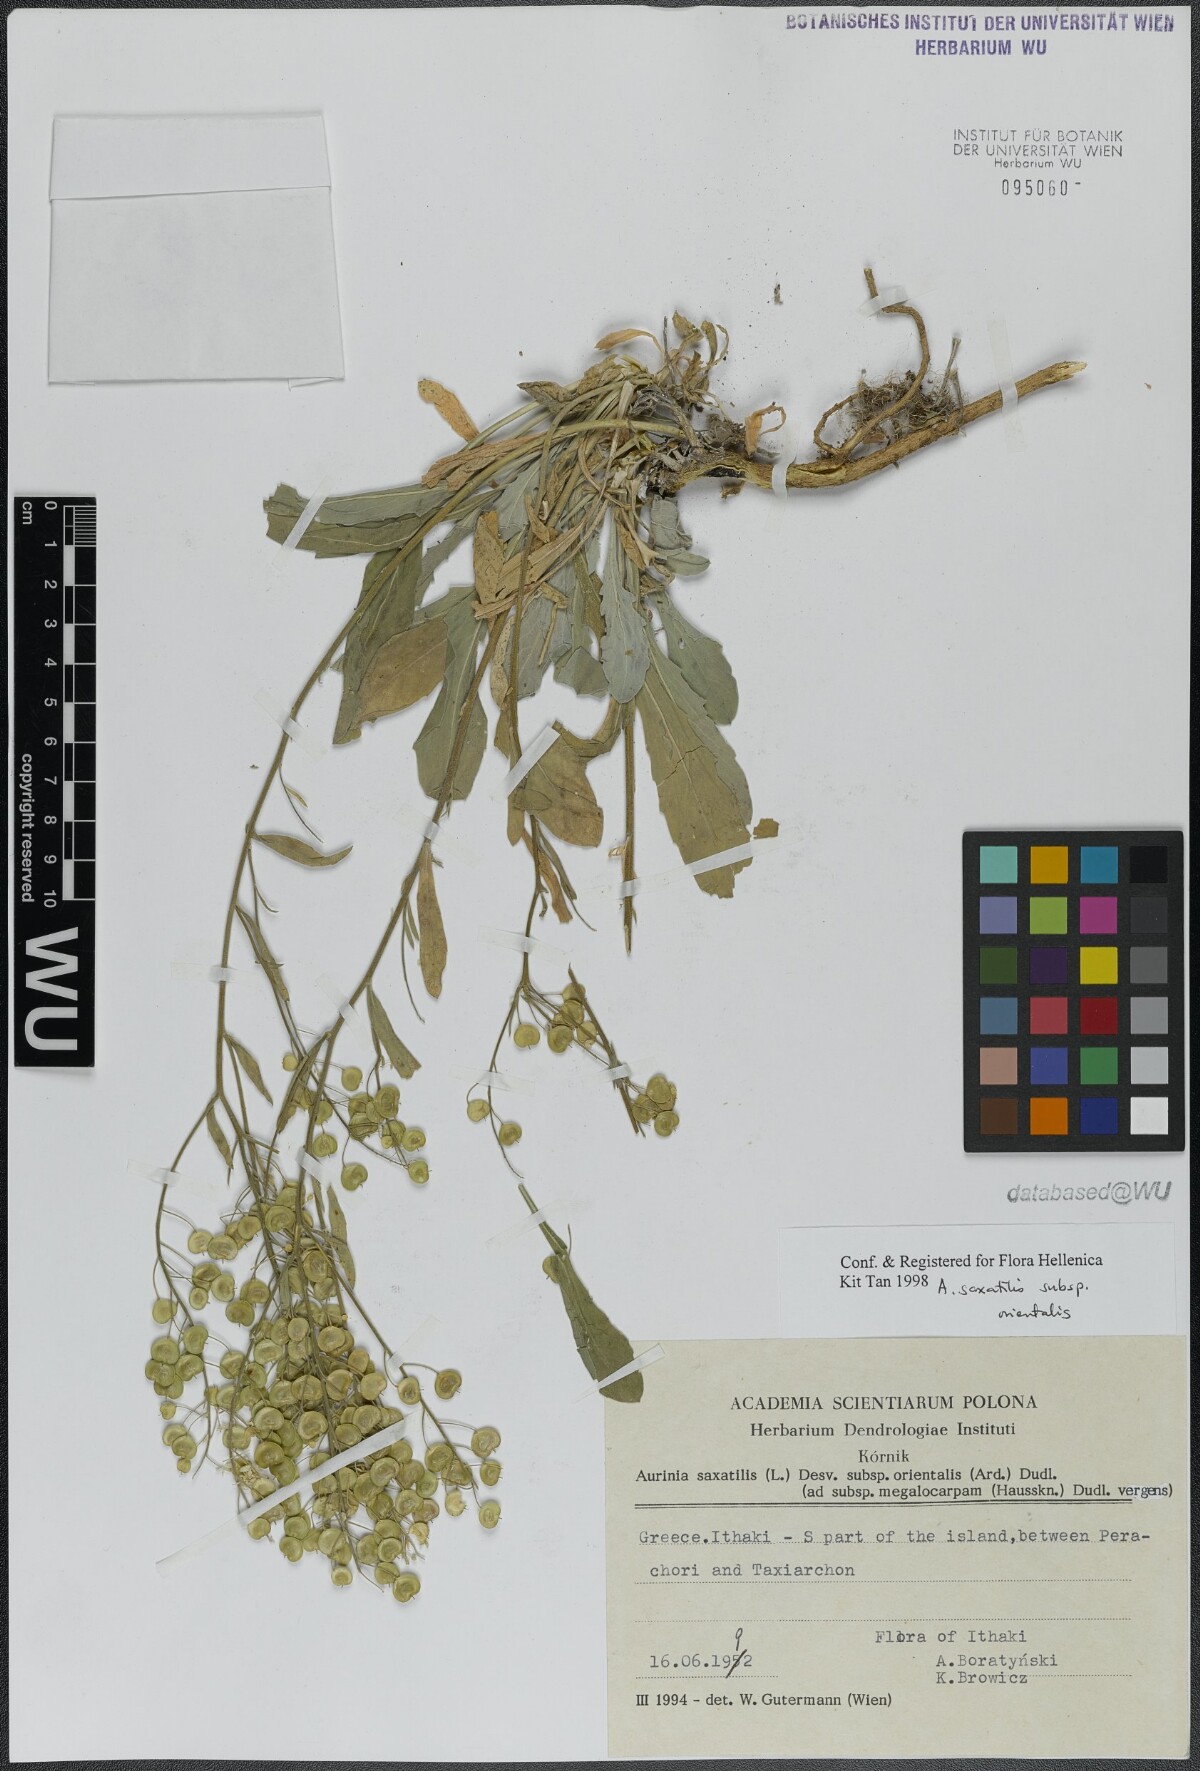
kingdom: Plantae
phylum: Tracheophyta
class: Magnoliopsida
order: Brassicales
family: Brassicaceae
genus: Aurinia
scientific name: Aurinia saxatilis
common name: Golden-tuft alyssum
